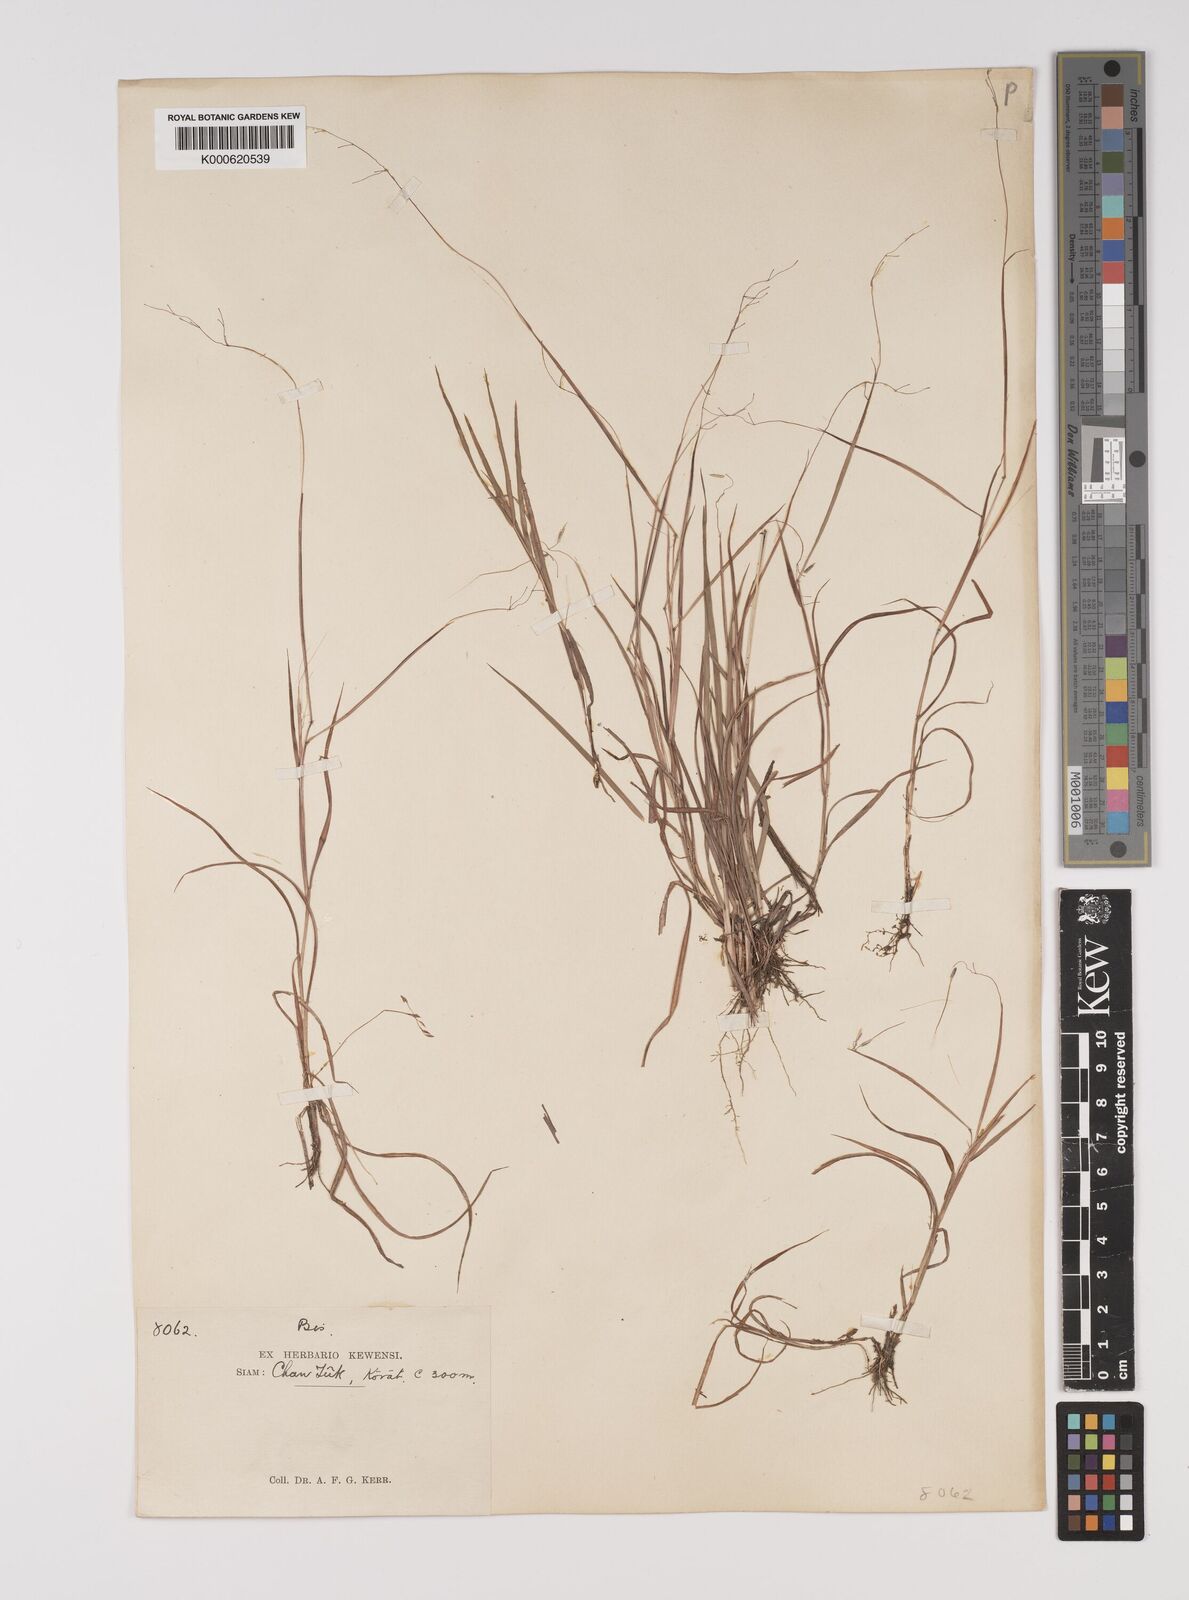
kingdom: Plantae
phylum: Tracheophyta
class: Liliopsida
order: Poales
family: Poaceae
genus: Capillipedium
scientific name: Capillipedium
